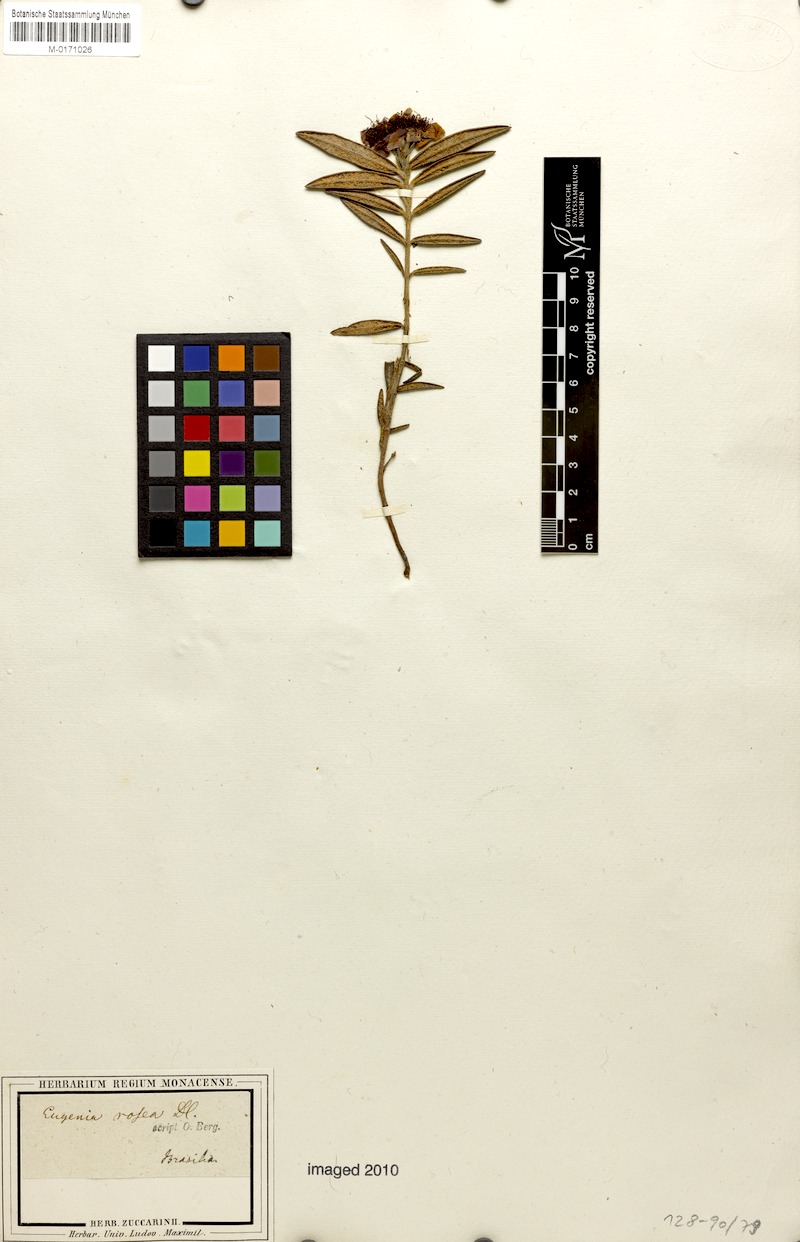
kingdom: Plantae
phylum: Tracheophyta
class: Magnoliopsida
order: Myrtales
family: Myrtaceae
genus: Eugenia
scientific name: Eugenia rosea
